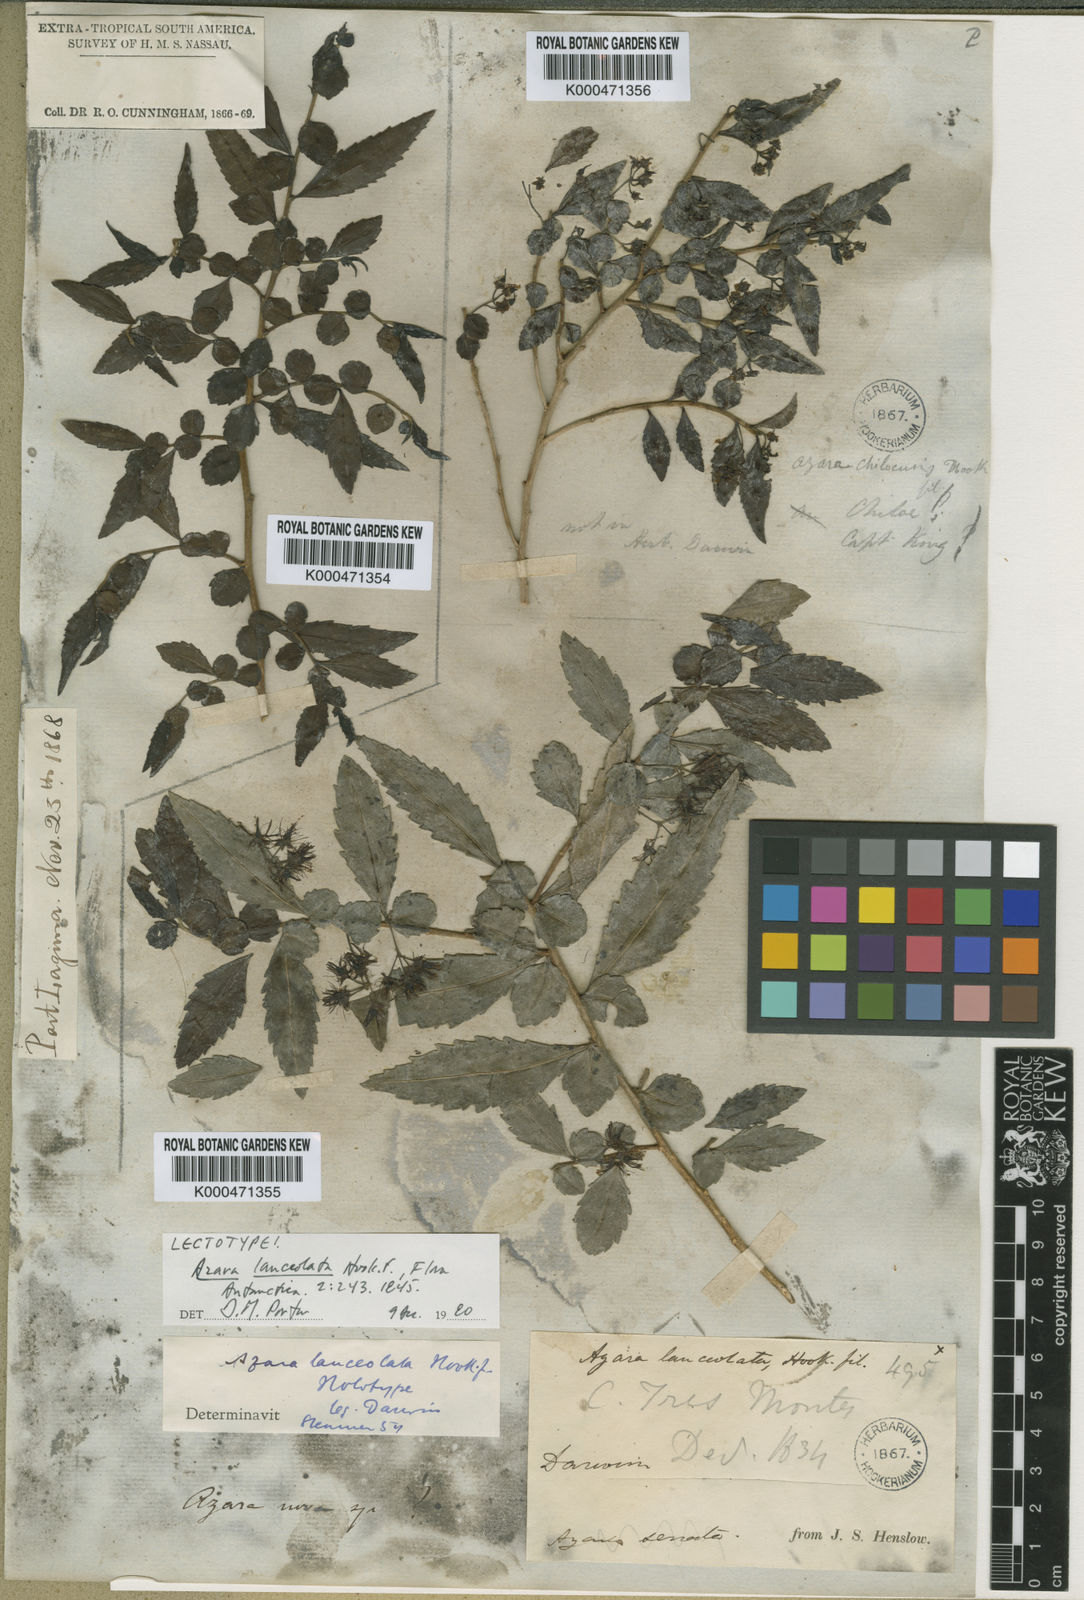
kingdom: Plantae
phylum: Tracheophyta
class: Magnoliopsida
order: Malpighiales
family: Salicaceae
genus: Azara
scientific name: Azara lanceolata
